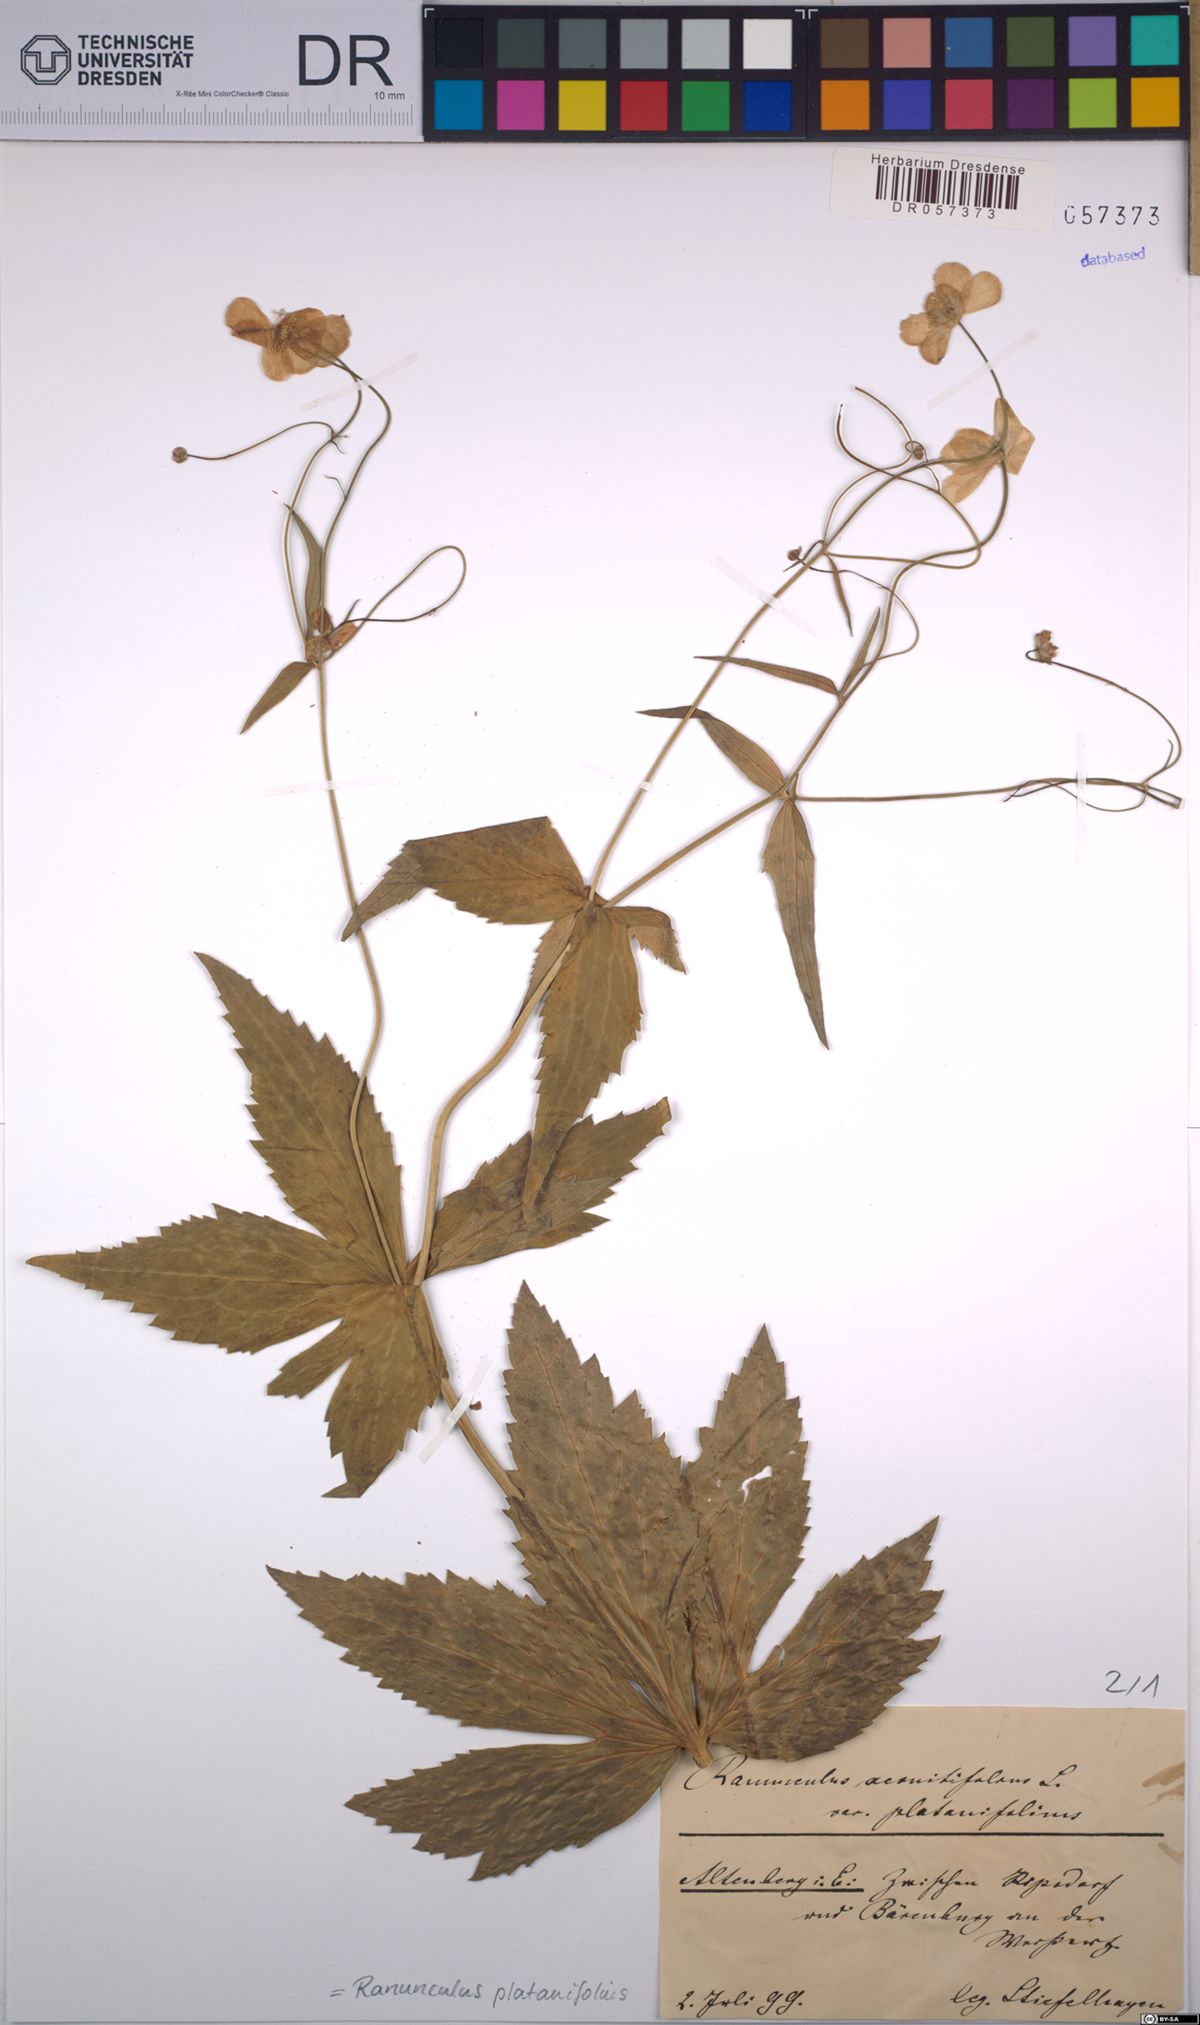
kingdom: Plantae
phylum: Tracheophyta
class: Magnoliopsida
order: Ranunculales
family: Ranunculaceae
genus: Ranunculus
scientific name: Ranunculus platanifolius
